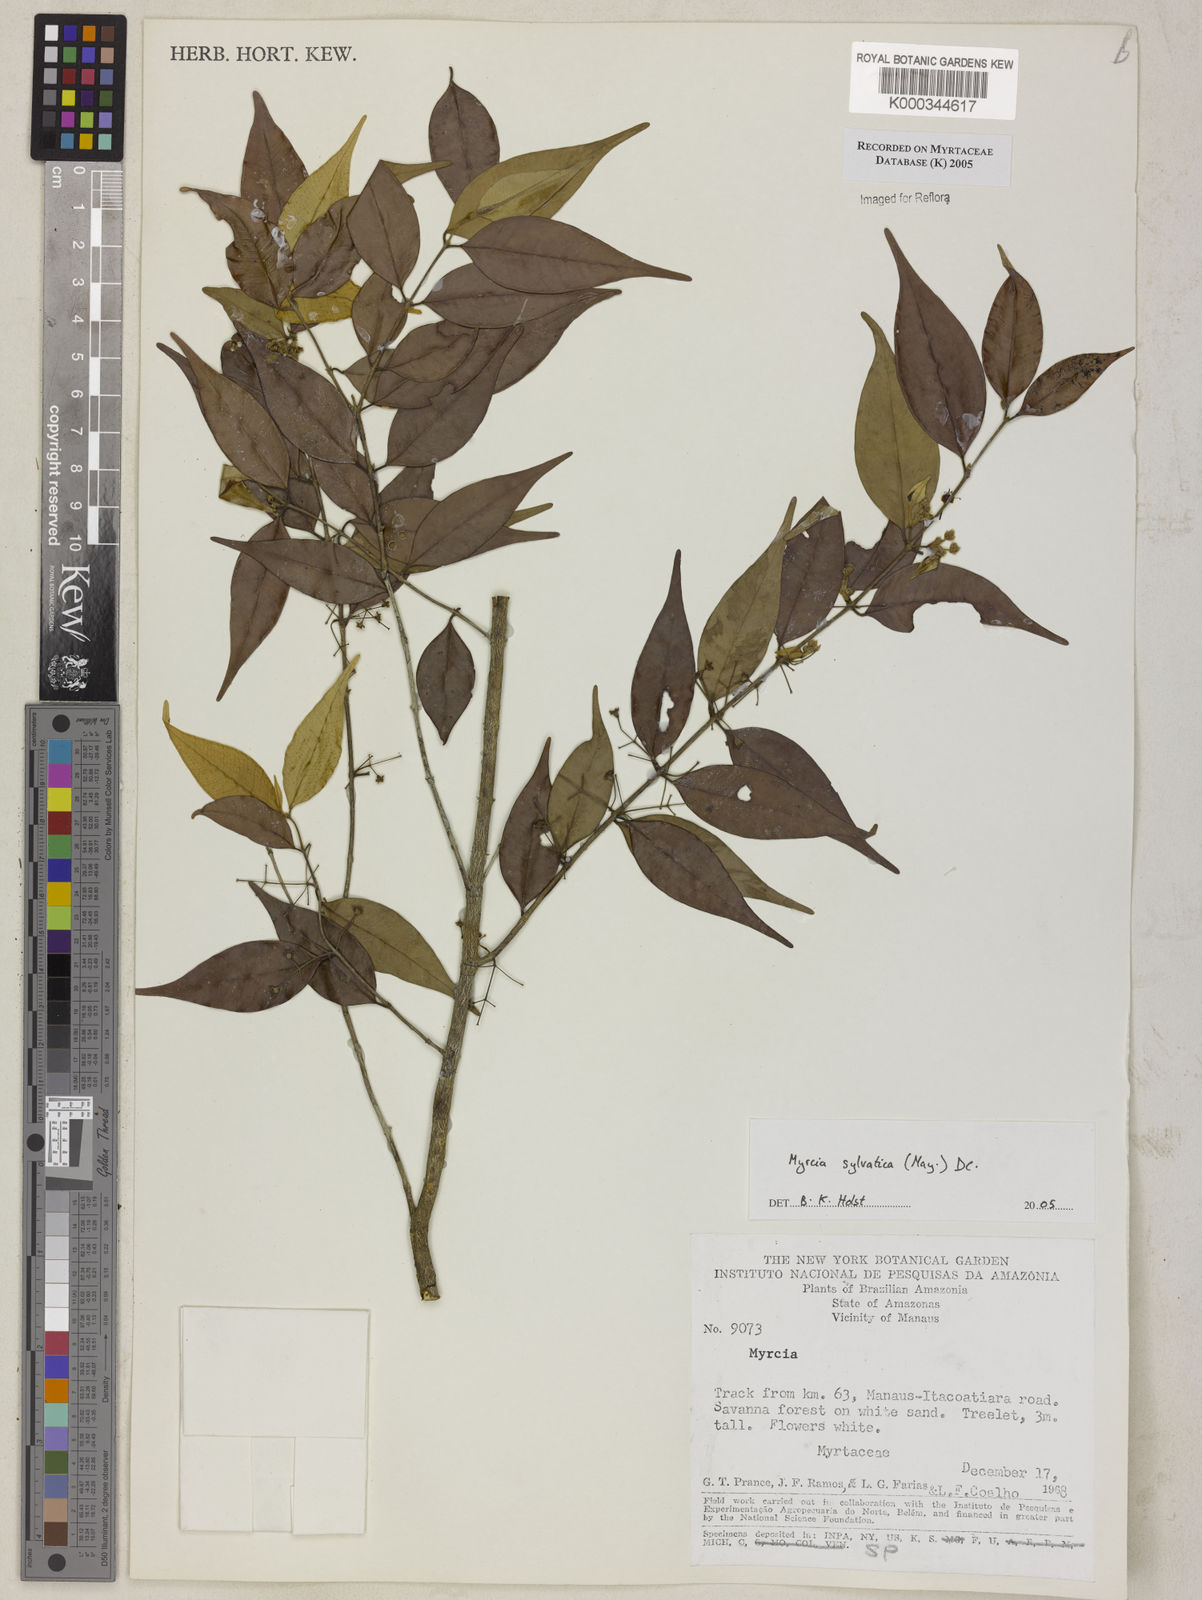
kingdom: Plantae
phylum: Tracheophyta
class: Magnoliopsida
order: Myrtales
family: Myrtaceae
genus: Myrcia
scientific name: Myrcia sylvatica
